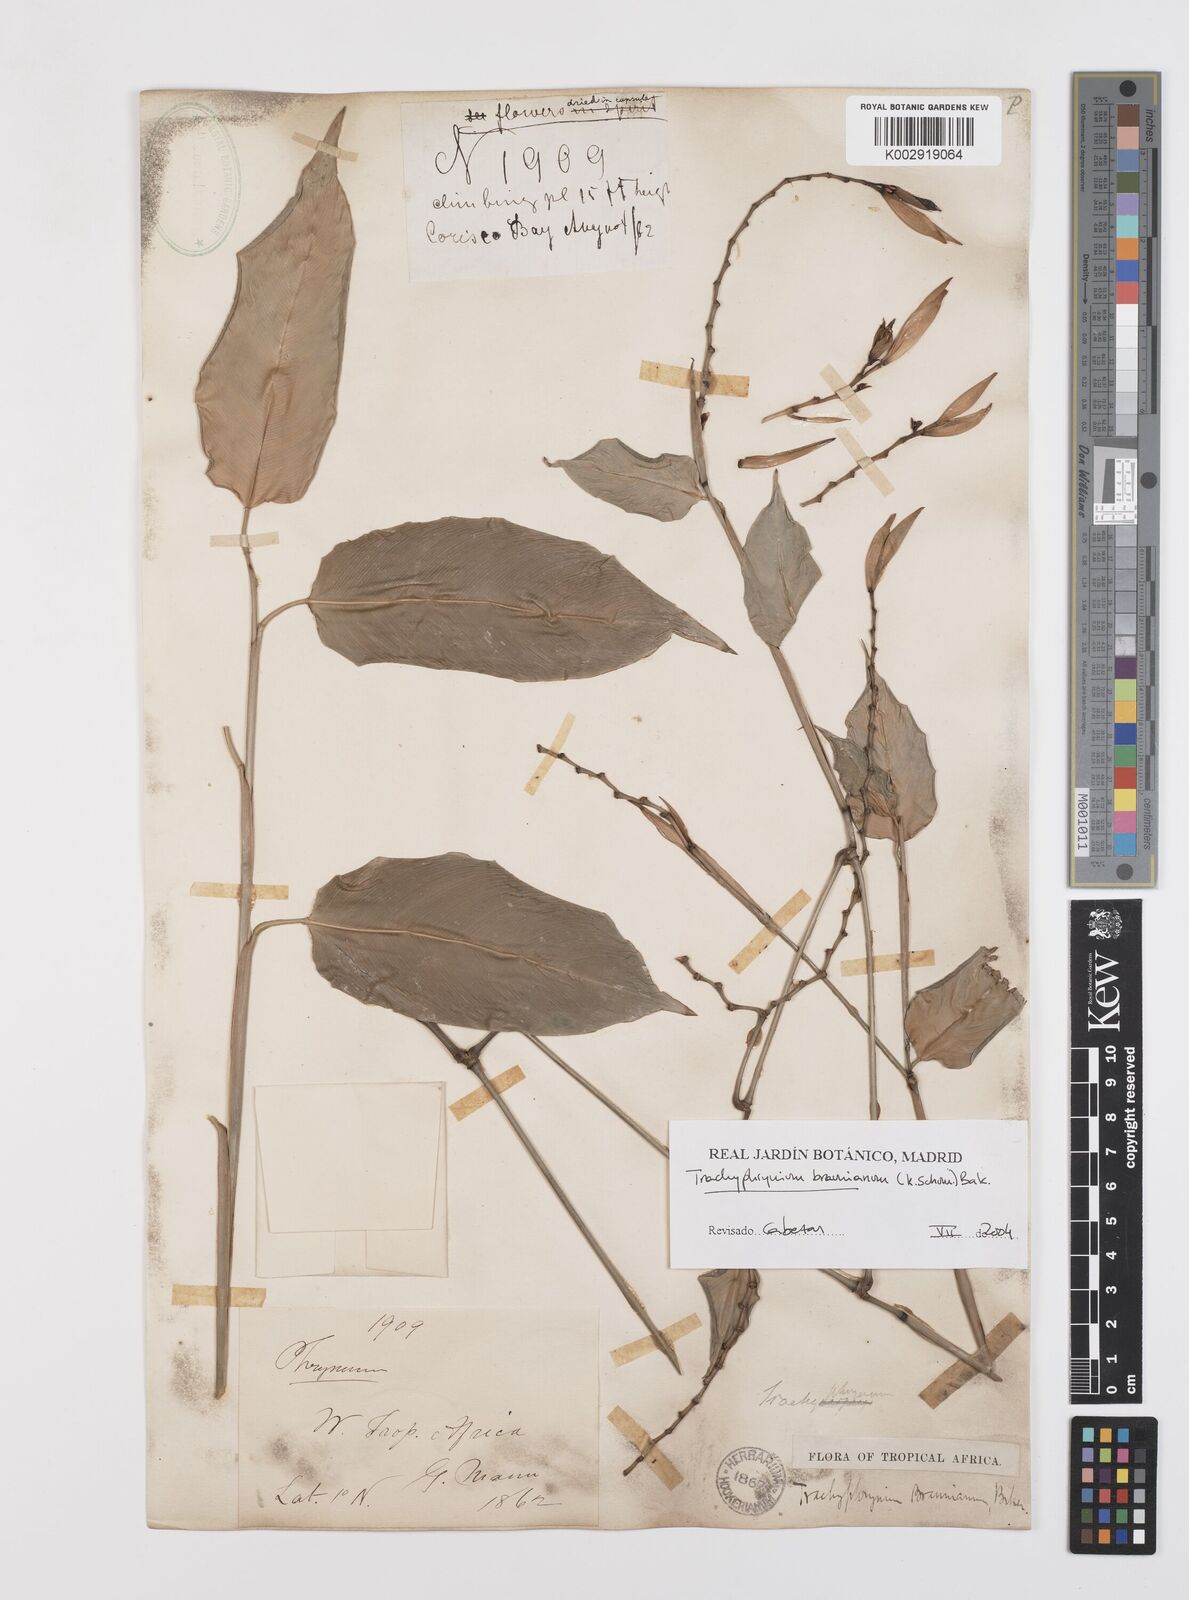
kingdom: Plantae
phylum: Tracheophyta
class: Liliopsida
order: Zingiberales
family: Marantaceae
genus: Trachyphrynium
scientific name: Trachyphrynium braunianum
